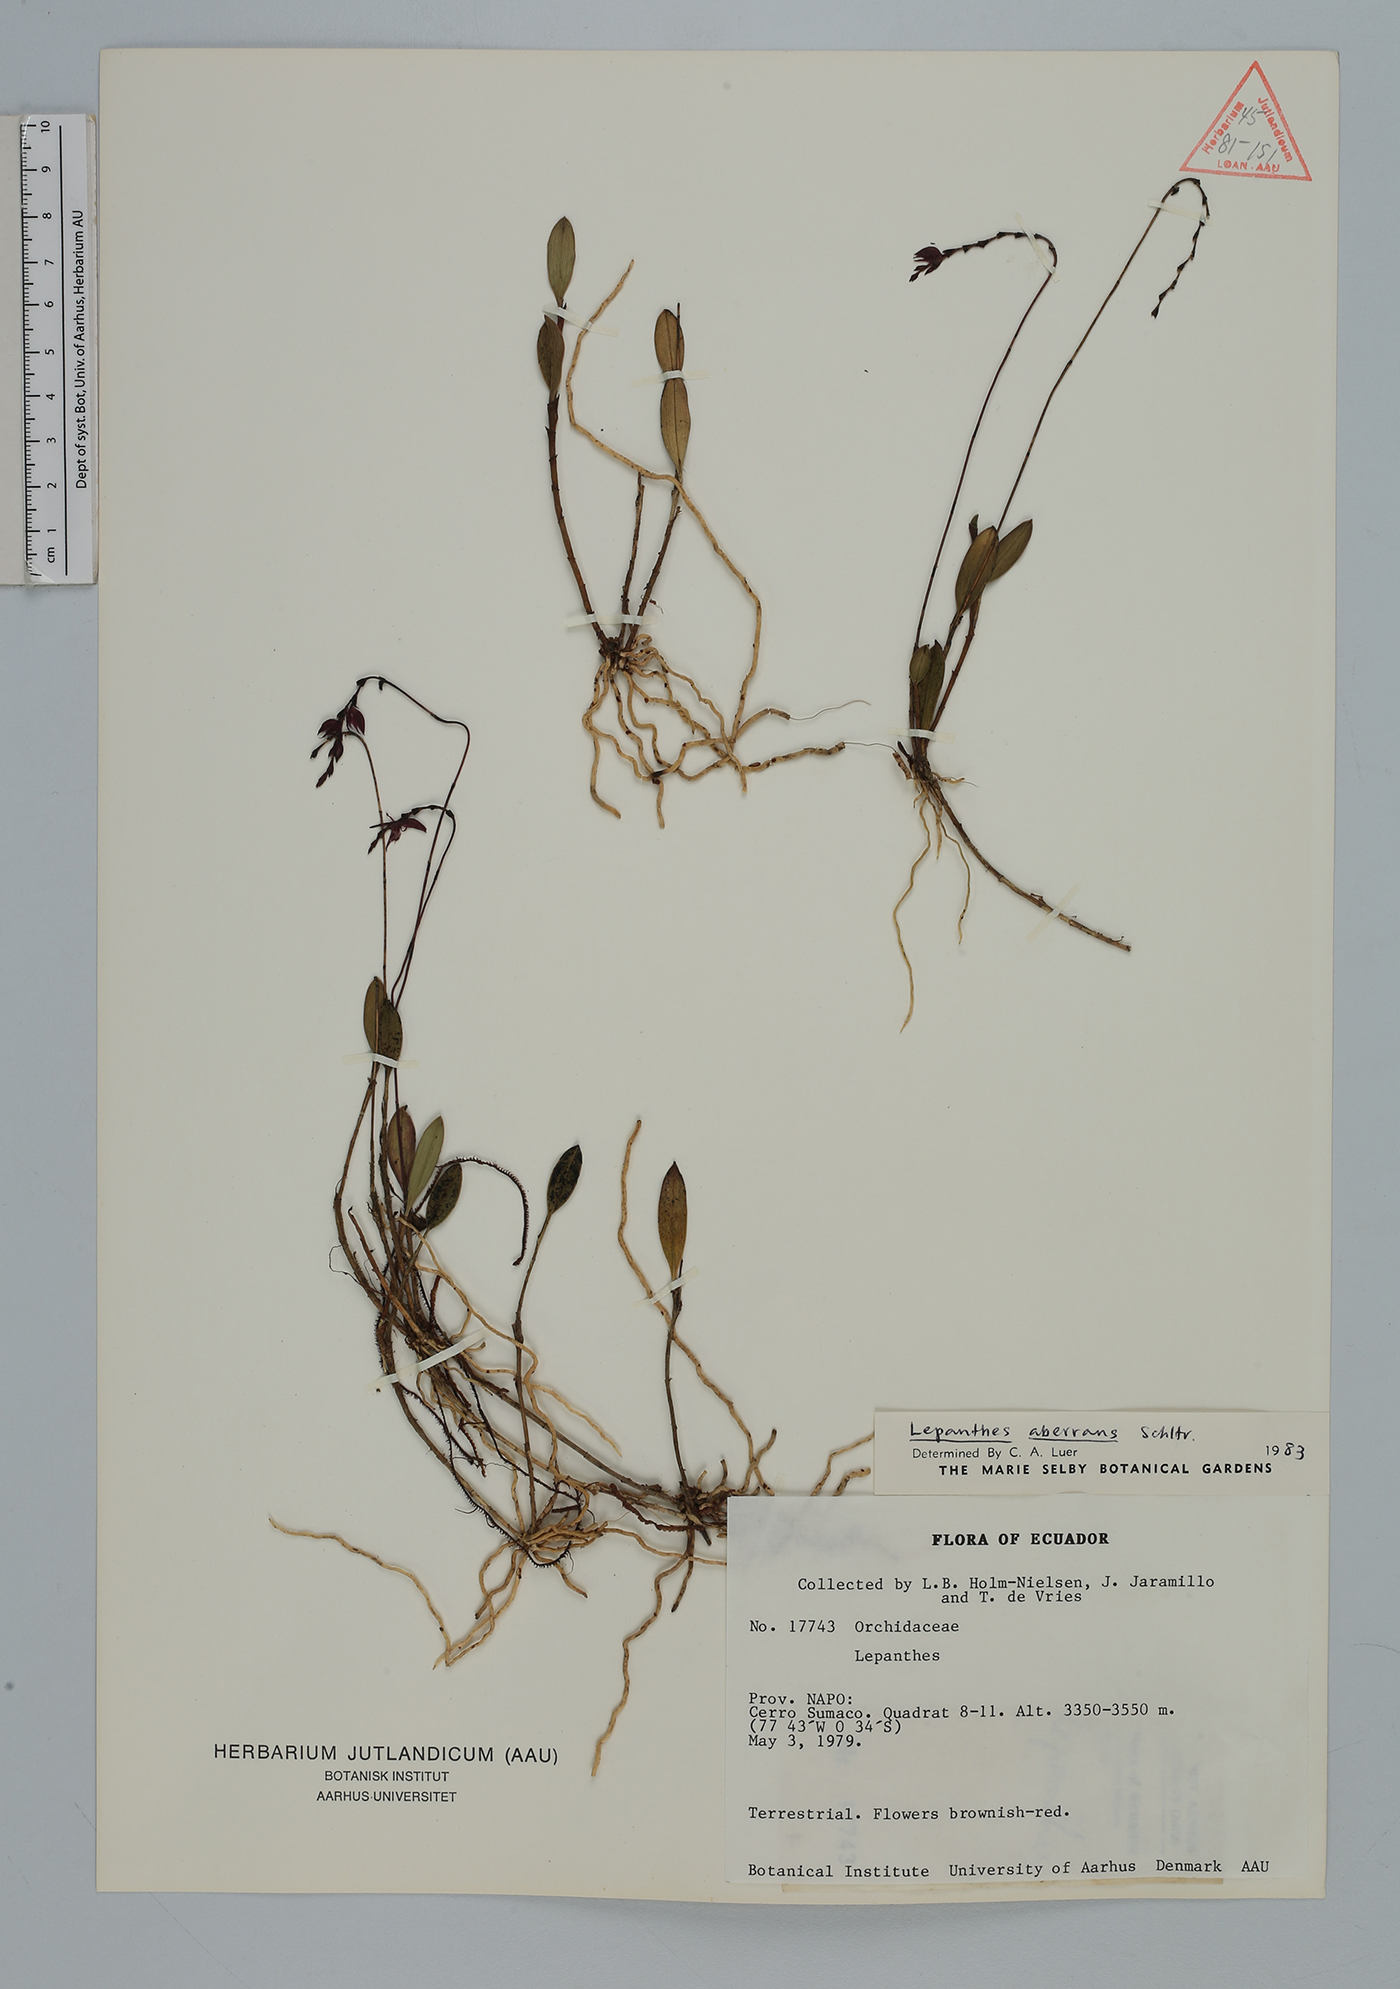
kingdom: Plantae
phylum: Tracheophyta
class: Liliopsida
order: Asparagales
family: Orchidaceae
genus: Draconanthes
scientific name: Draconanthes aberrans
